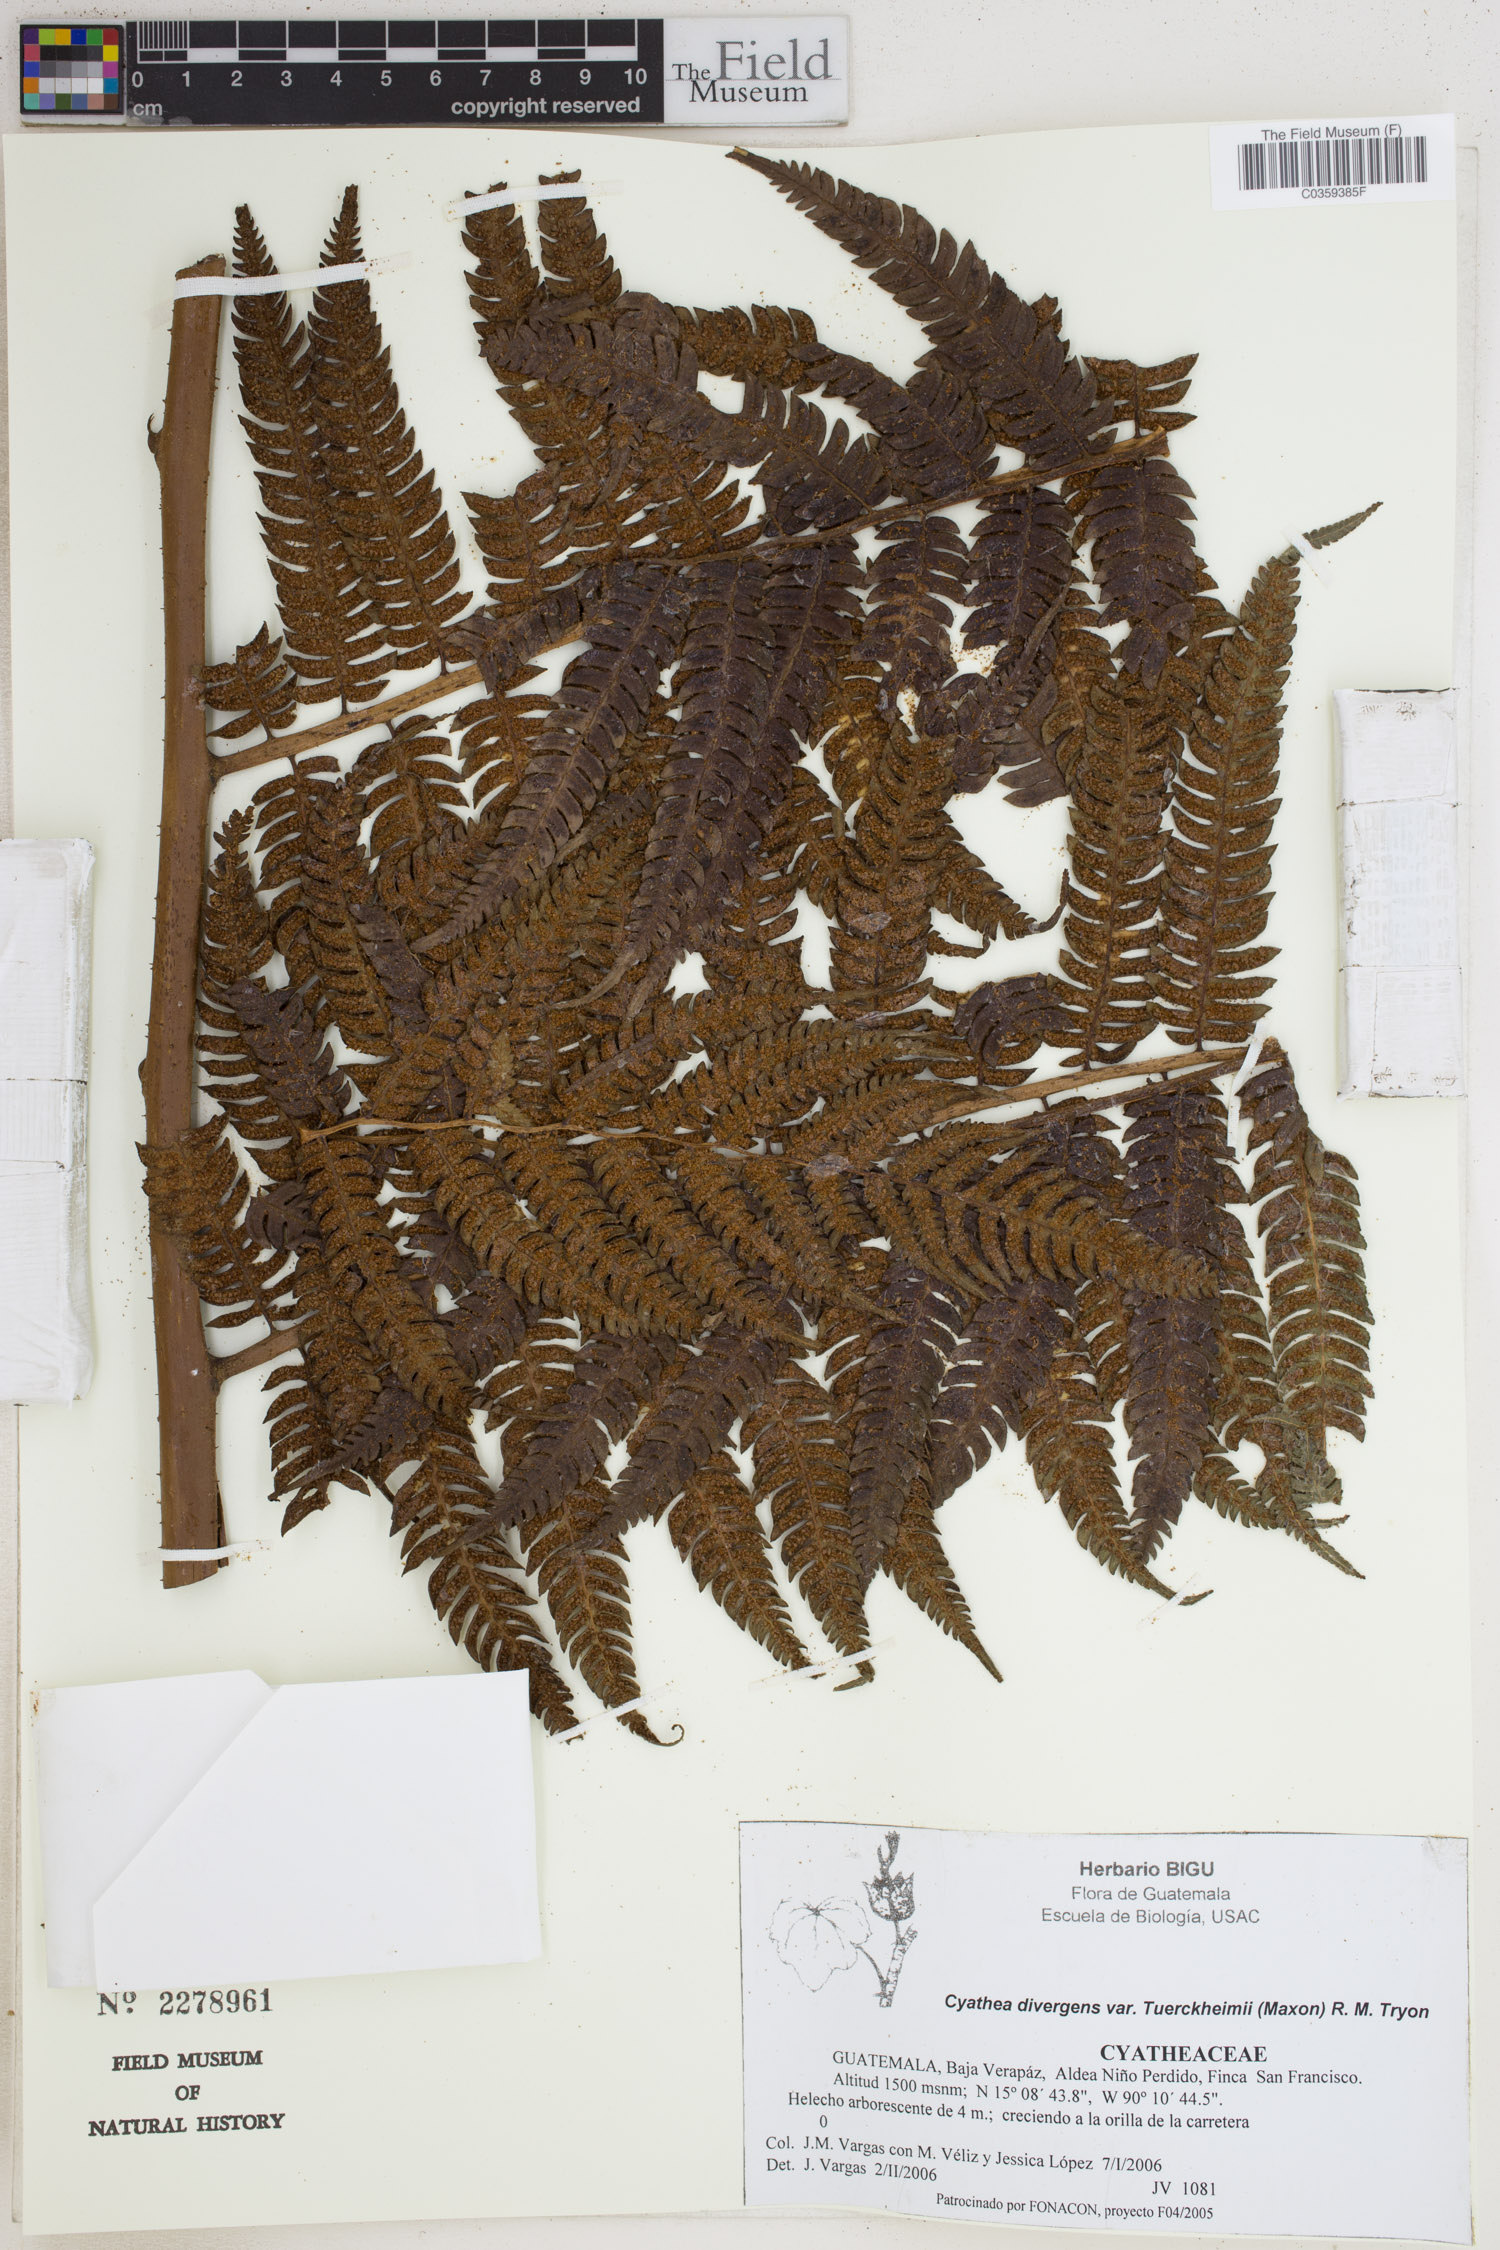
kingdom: Plantae
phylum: Tracheophyta
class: Polypodiopsida
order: Cyatheales
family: Cyatheaceae
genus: Cyathea
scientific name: Cyathea tuerckheimii
